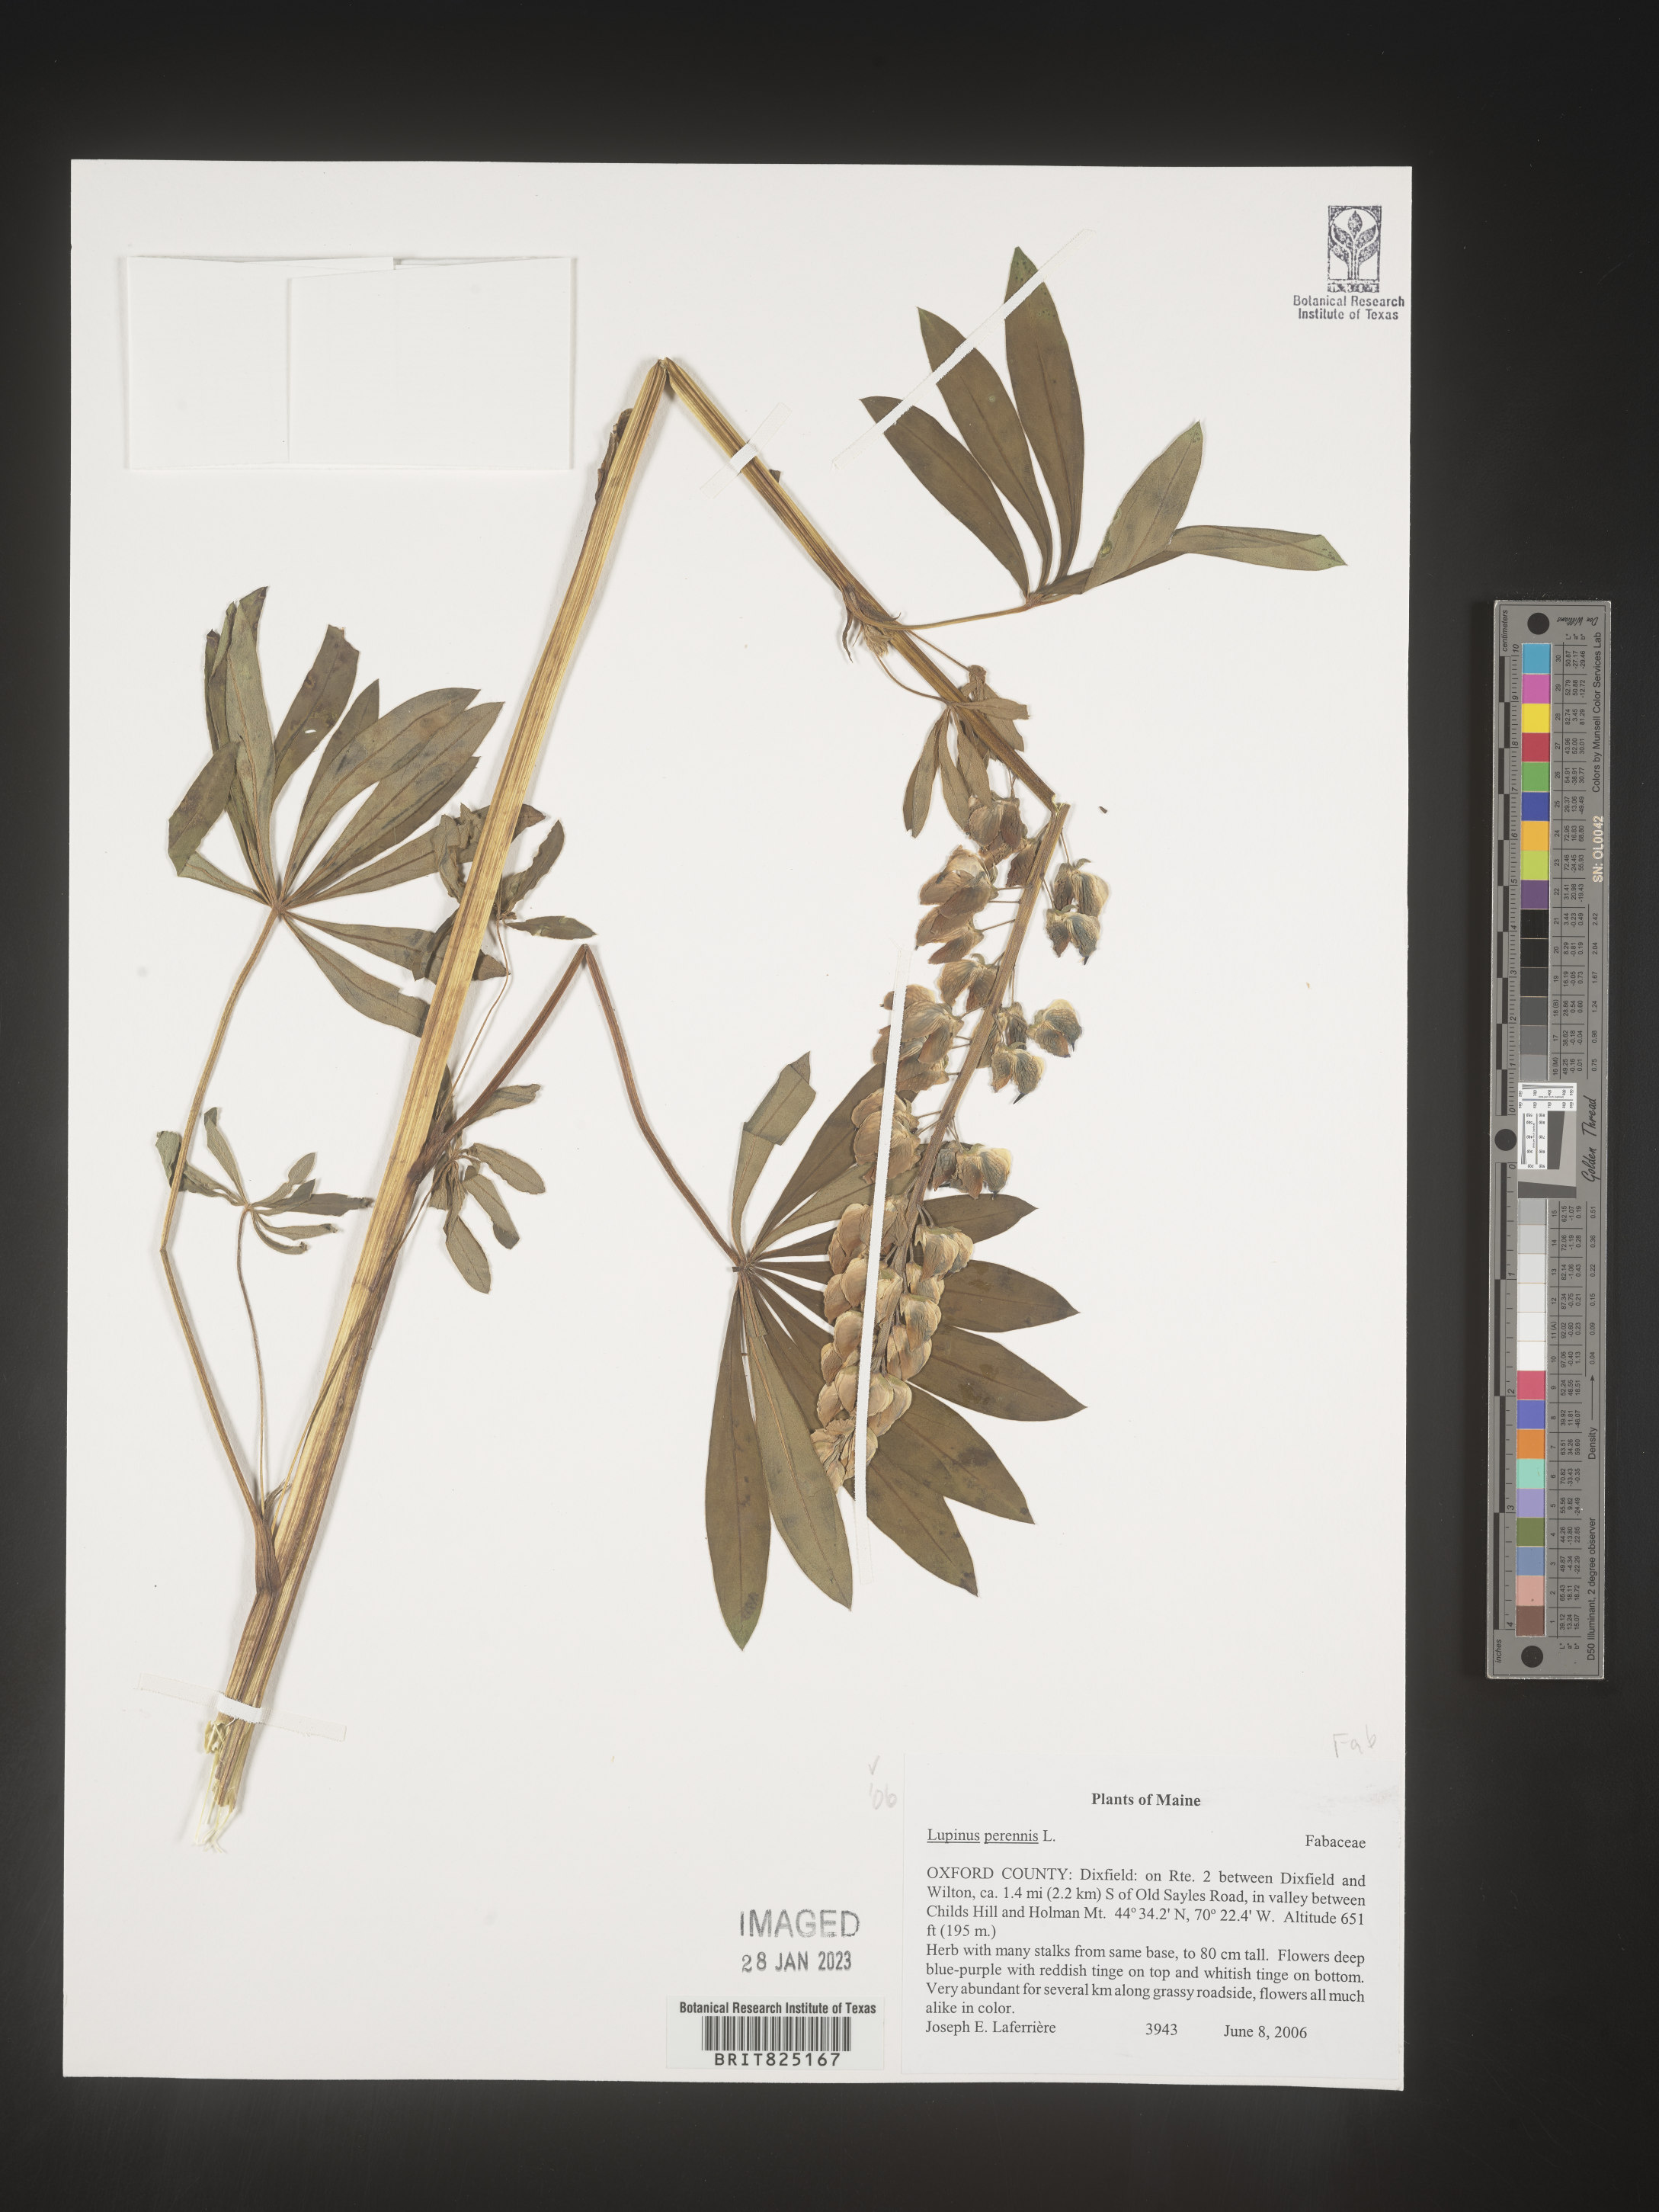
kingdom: Plantae
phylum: Tracheophyta
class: Magnoliopsida
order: Fabales
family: Fabaceae
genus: Lupinus
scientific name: Lupinus perennis
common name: Sundial lupine
